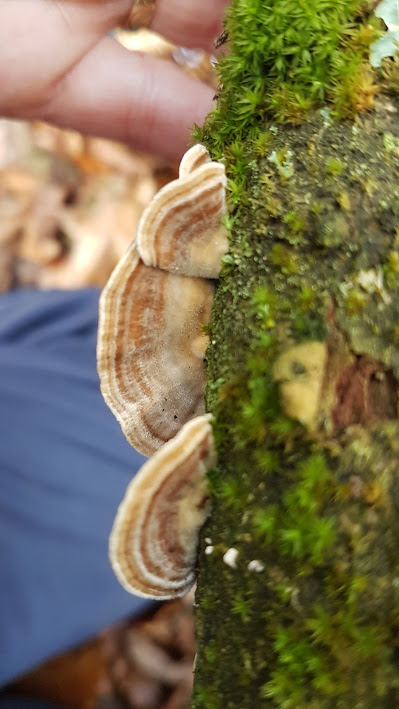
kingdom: Fungi
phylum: Basidiomycota
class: Agaricomycetes
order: Polyporales
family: Polyporaceae
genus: Trametes
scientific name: Trametes
